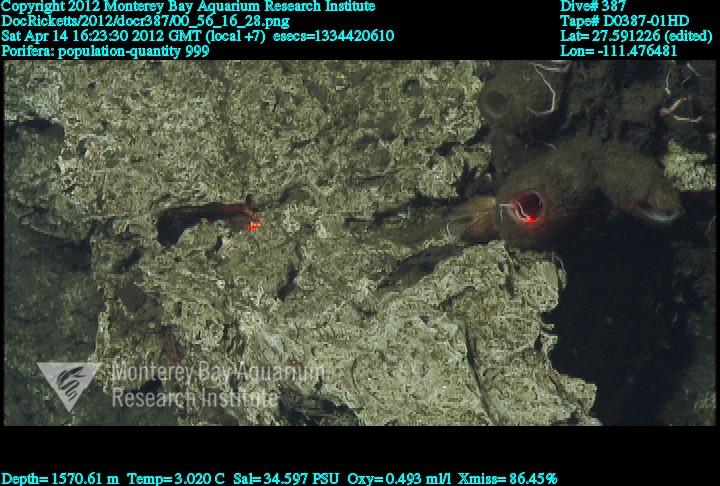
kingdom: Animalia
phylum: Porifera
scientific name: Porifera
